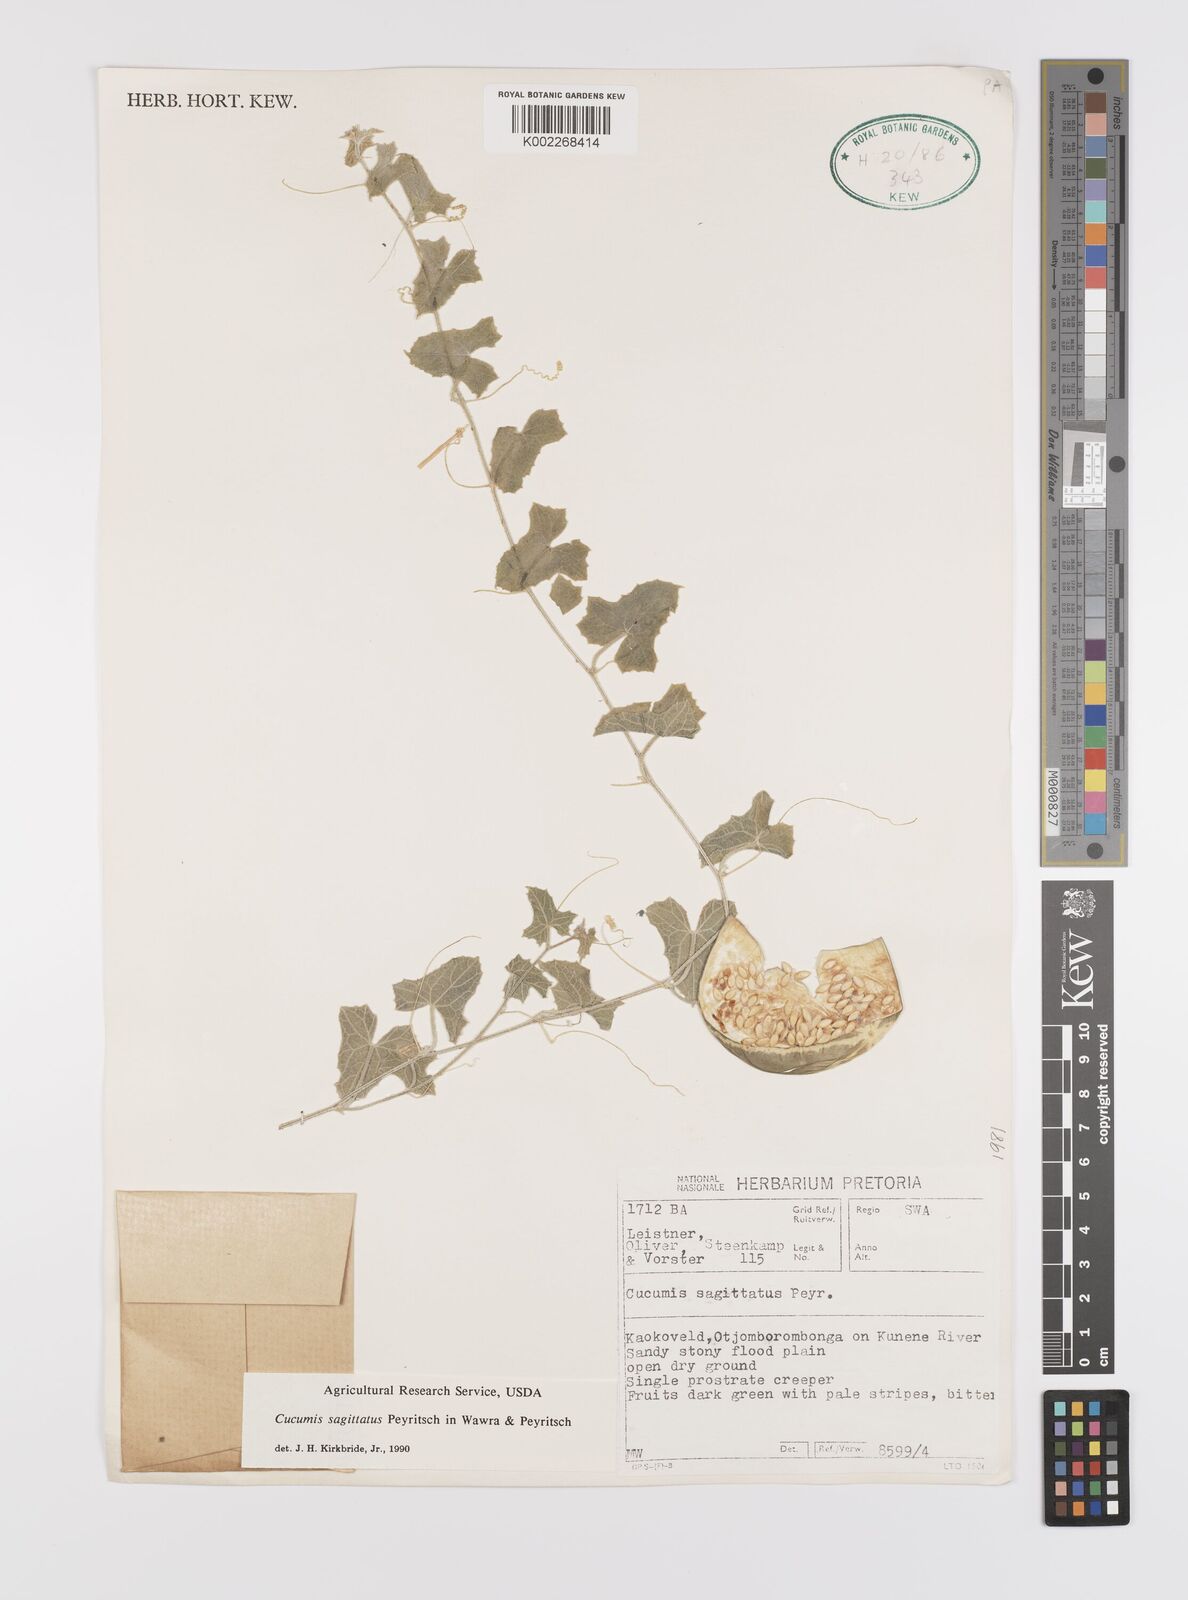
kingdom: Plantae
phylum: Tracheophyta
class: Magnoliopsida
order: Cucurbitales
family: Cucurbitaceae
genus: Cucumis
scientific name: Cucumis sagittatus
